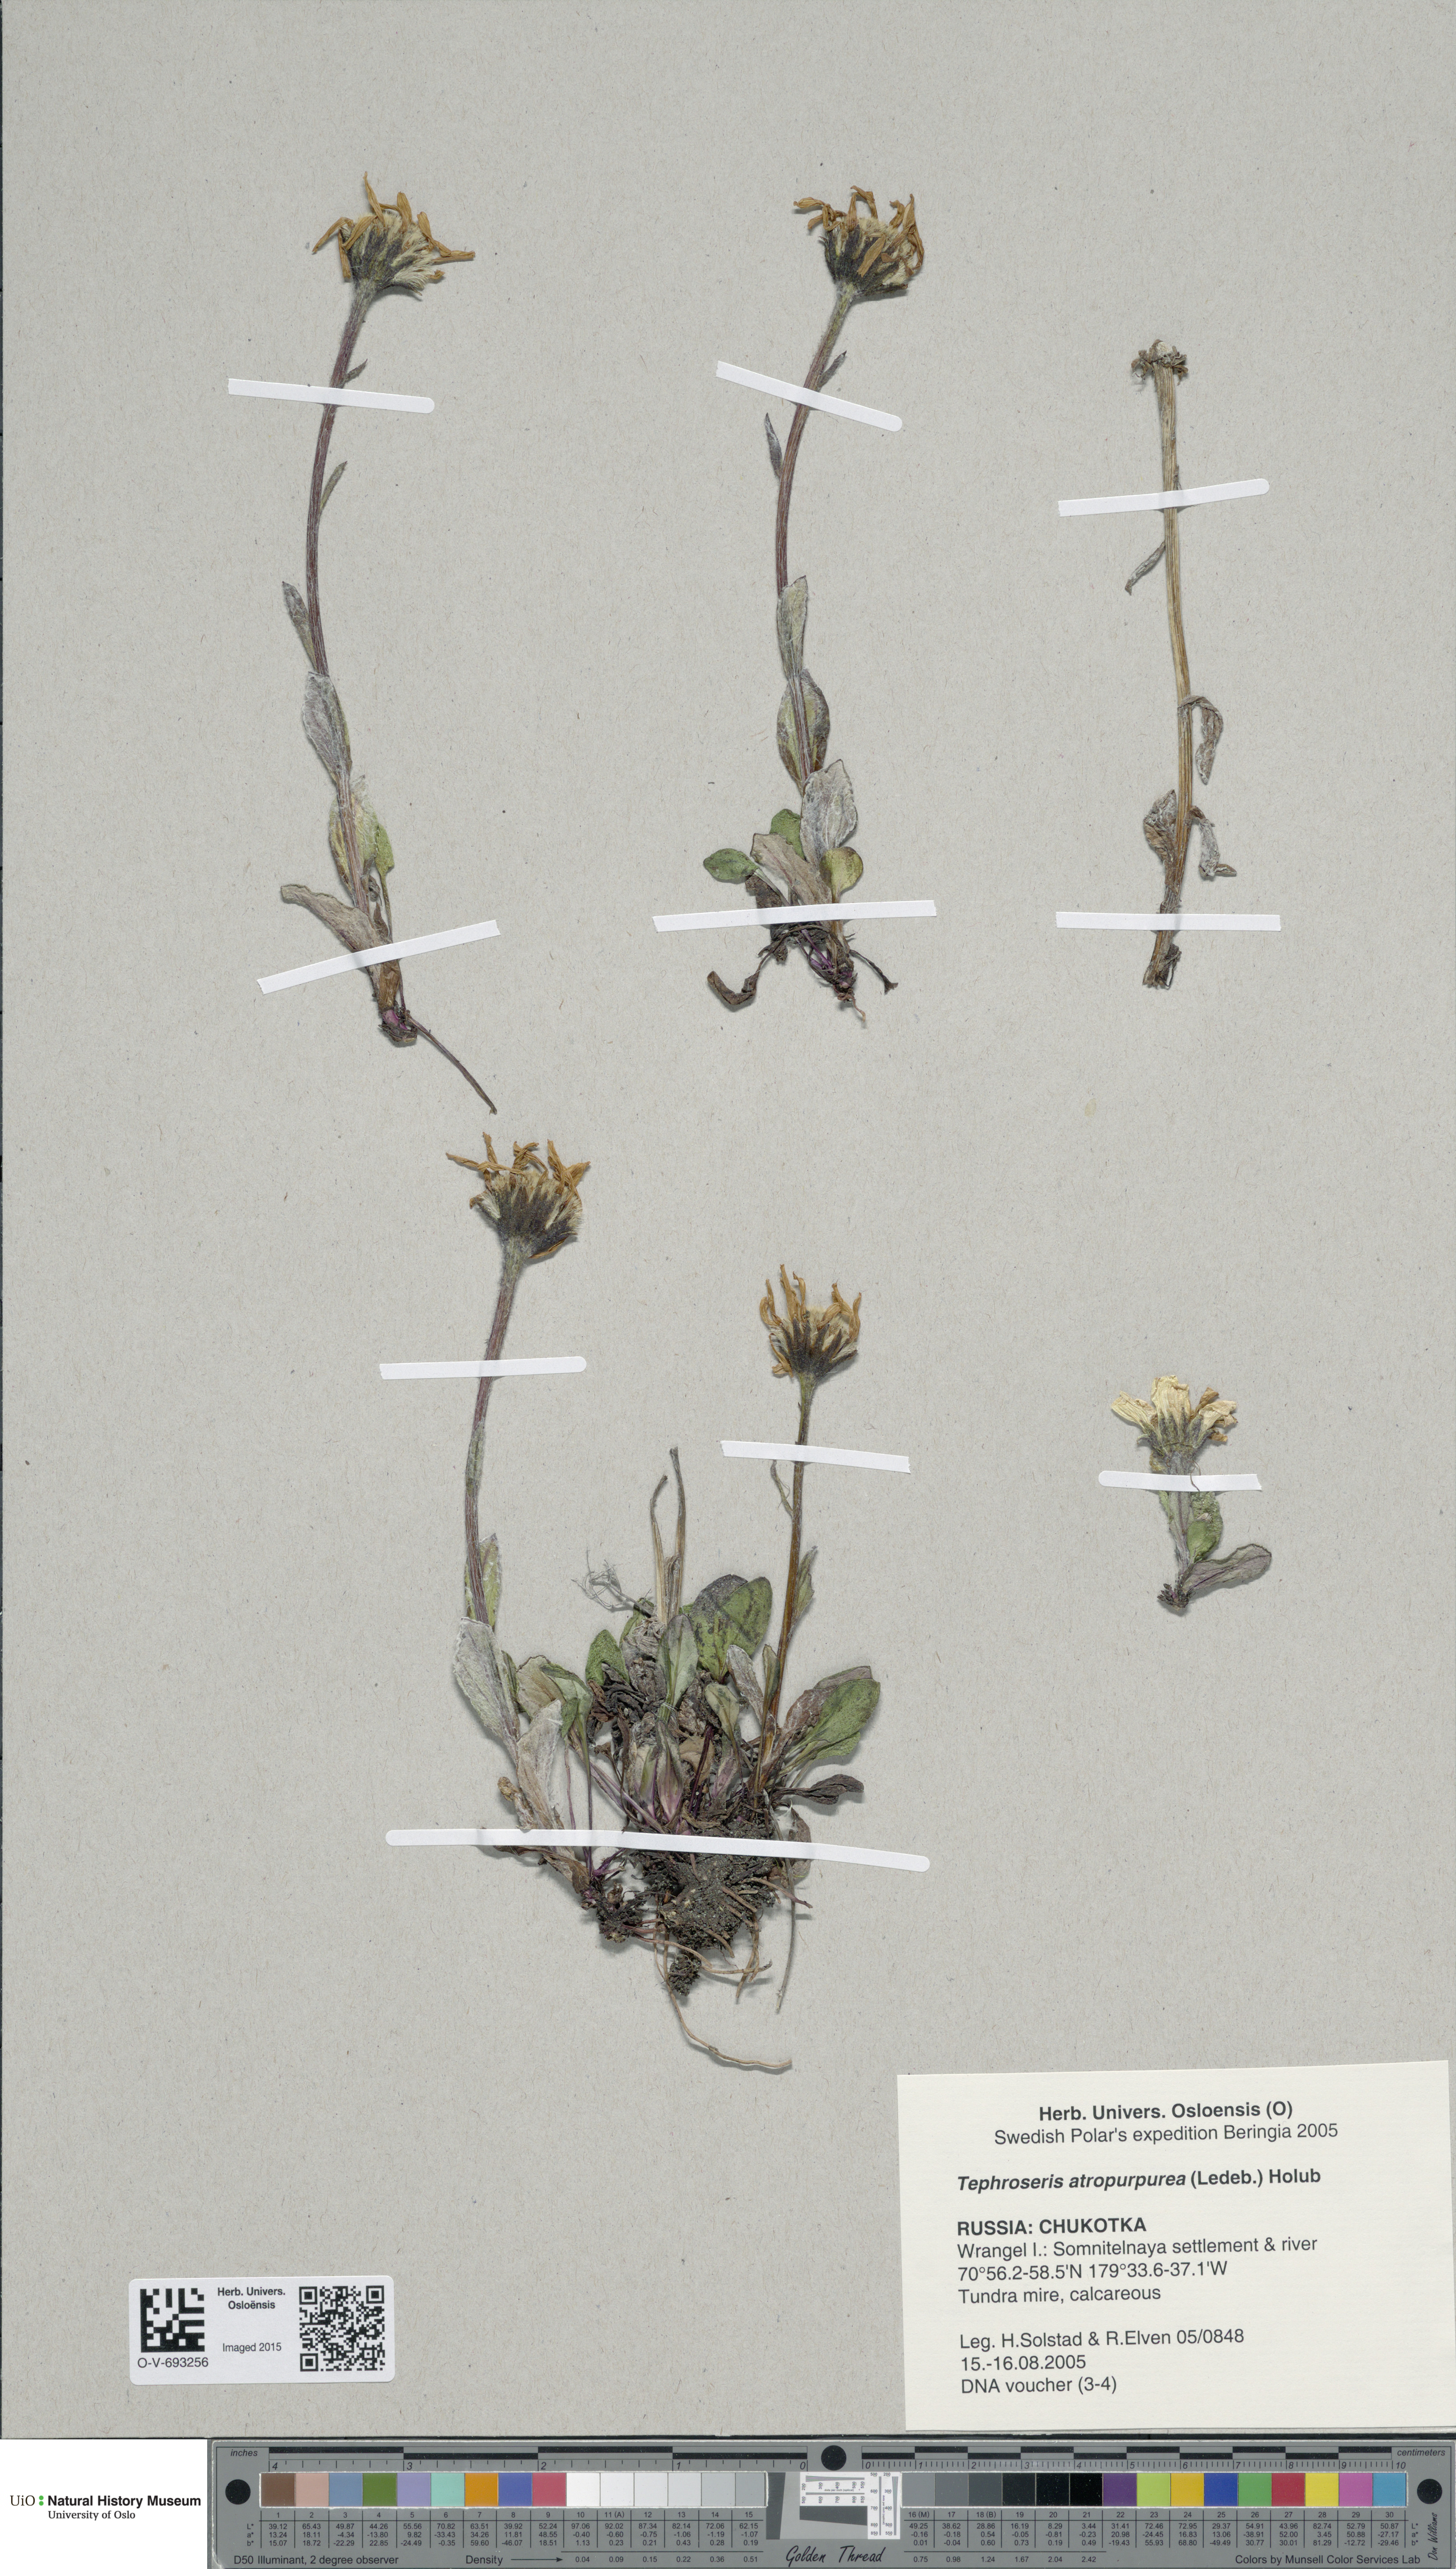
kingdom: Plantae
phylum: Tracheophyta
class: Magnoliopsida
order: Asterales
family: Asteraceae
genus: Tephroseris
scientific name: Tephroseris integrifolia
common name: Field fleawort
